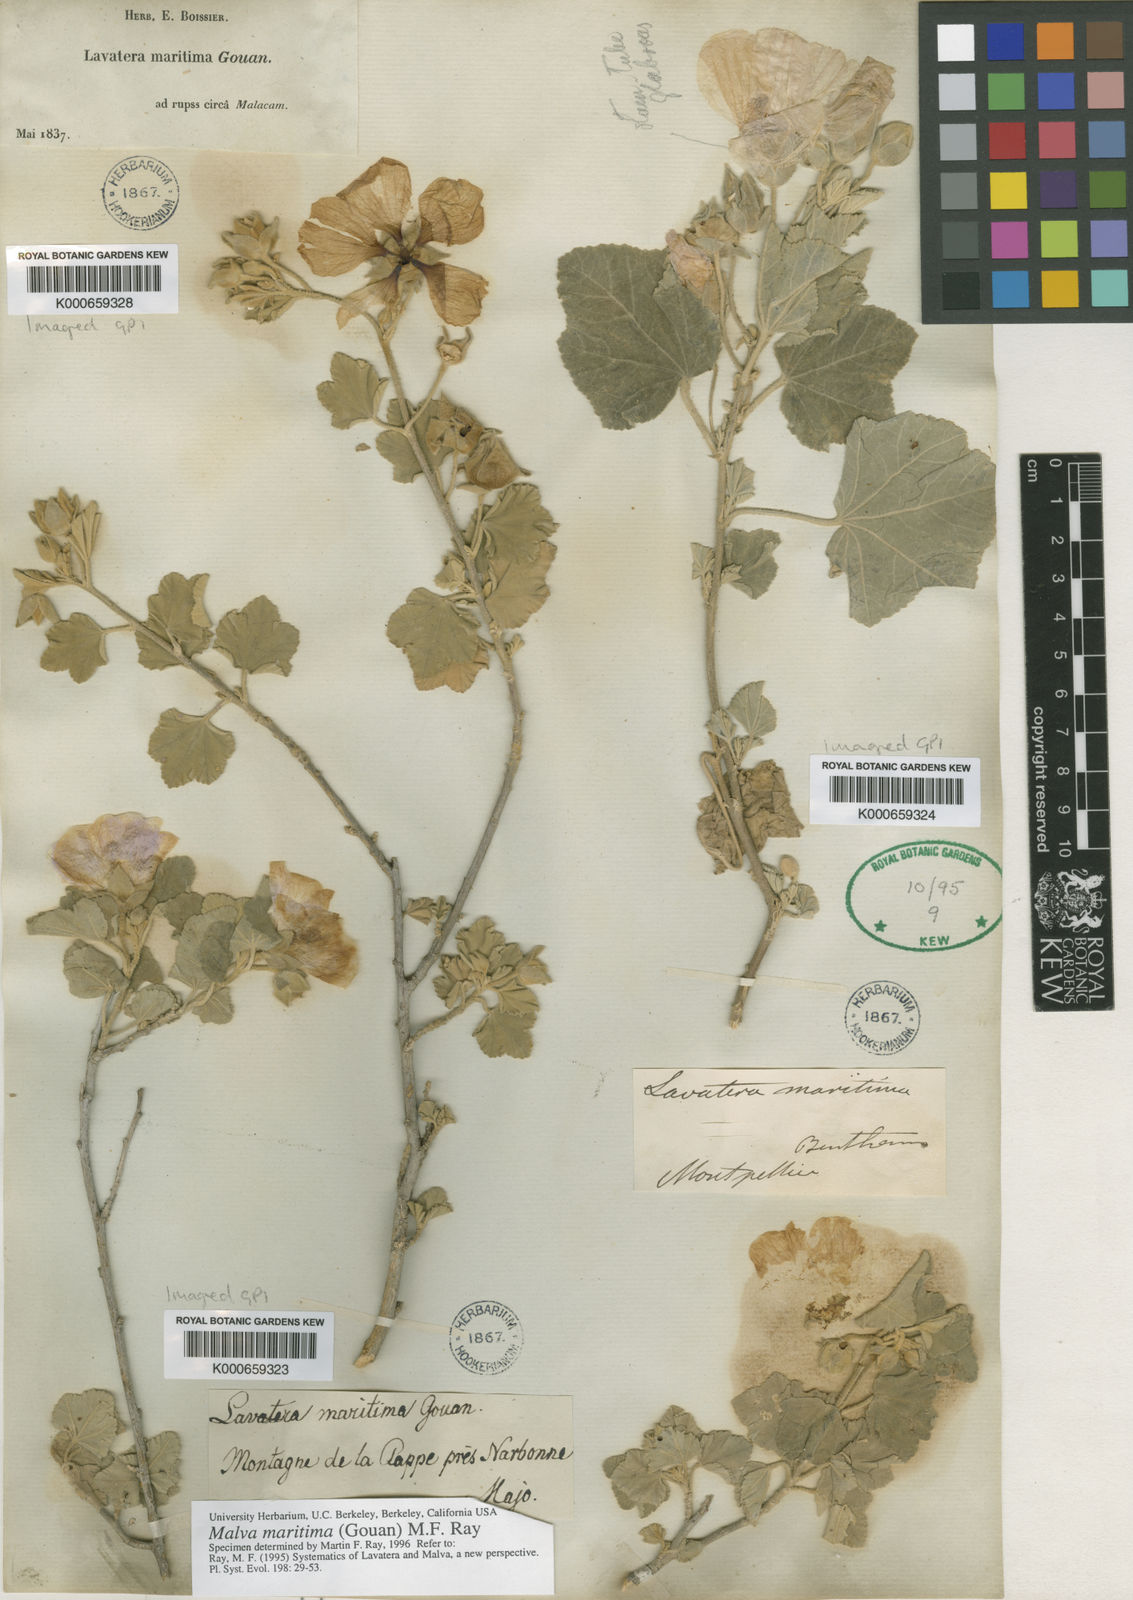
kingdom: Plantae
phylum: Tracheophyta
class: Magnoliopsida
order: Malvales
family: Malvaceae
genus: Malva
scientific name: Malva
